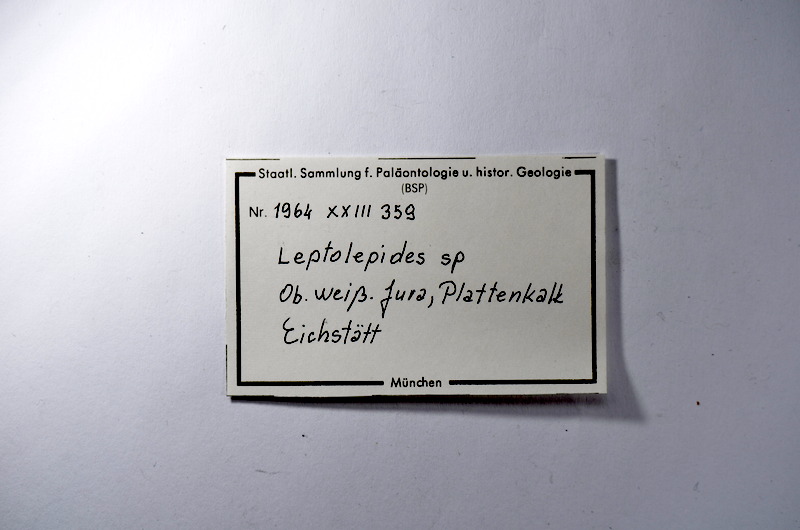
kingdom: Animalia
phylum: Chordata
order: Salmoniformes
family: Orthogonikleithridae
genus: Leptolepides
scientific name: Leptolepides
